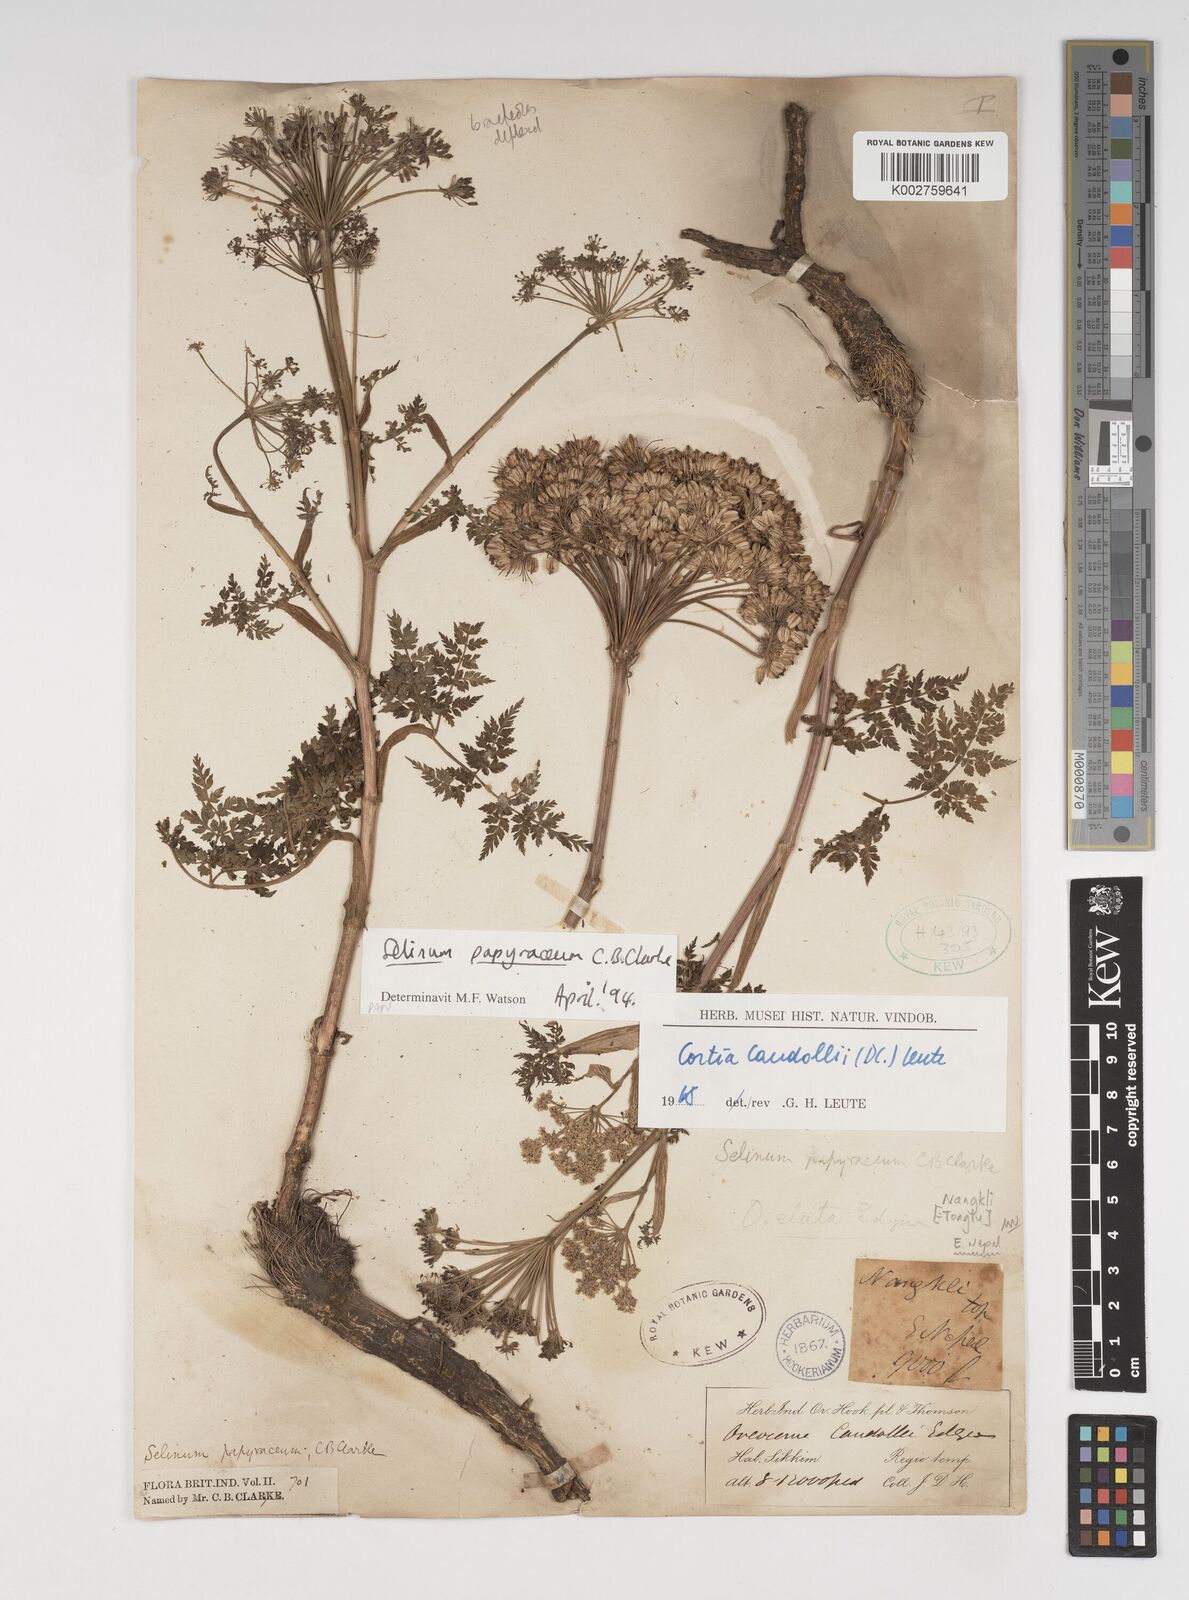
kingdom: Plantae
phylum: Tracheophyta
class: Magnoliopsida
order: Apiales
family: Apiaceae
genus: Conioselinum
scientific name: Conioselinum tataricum
